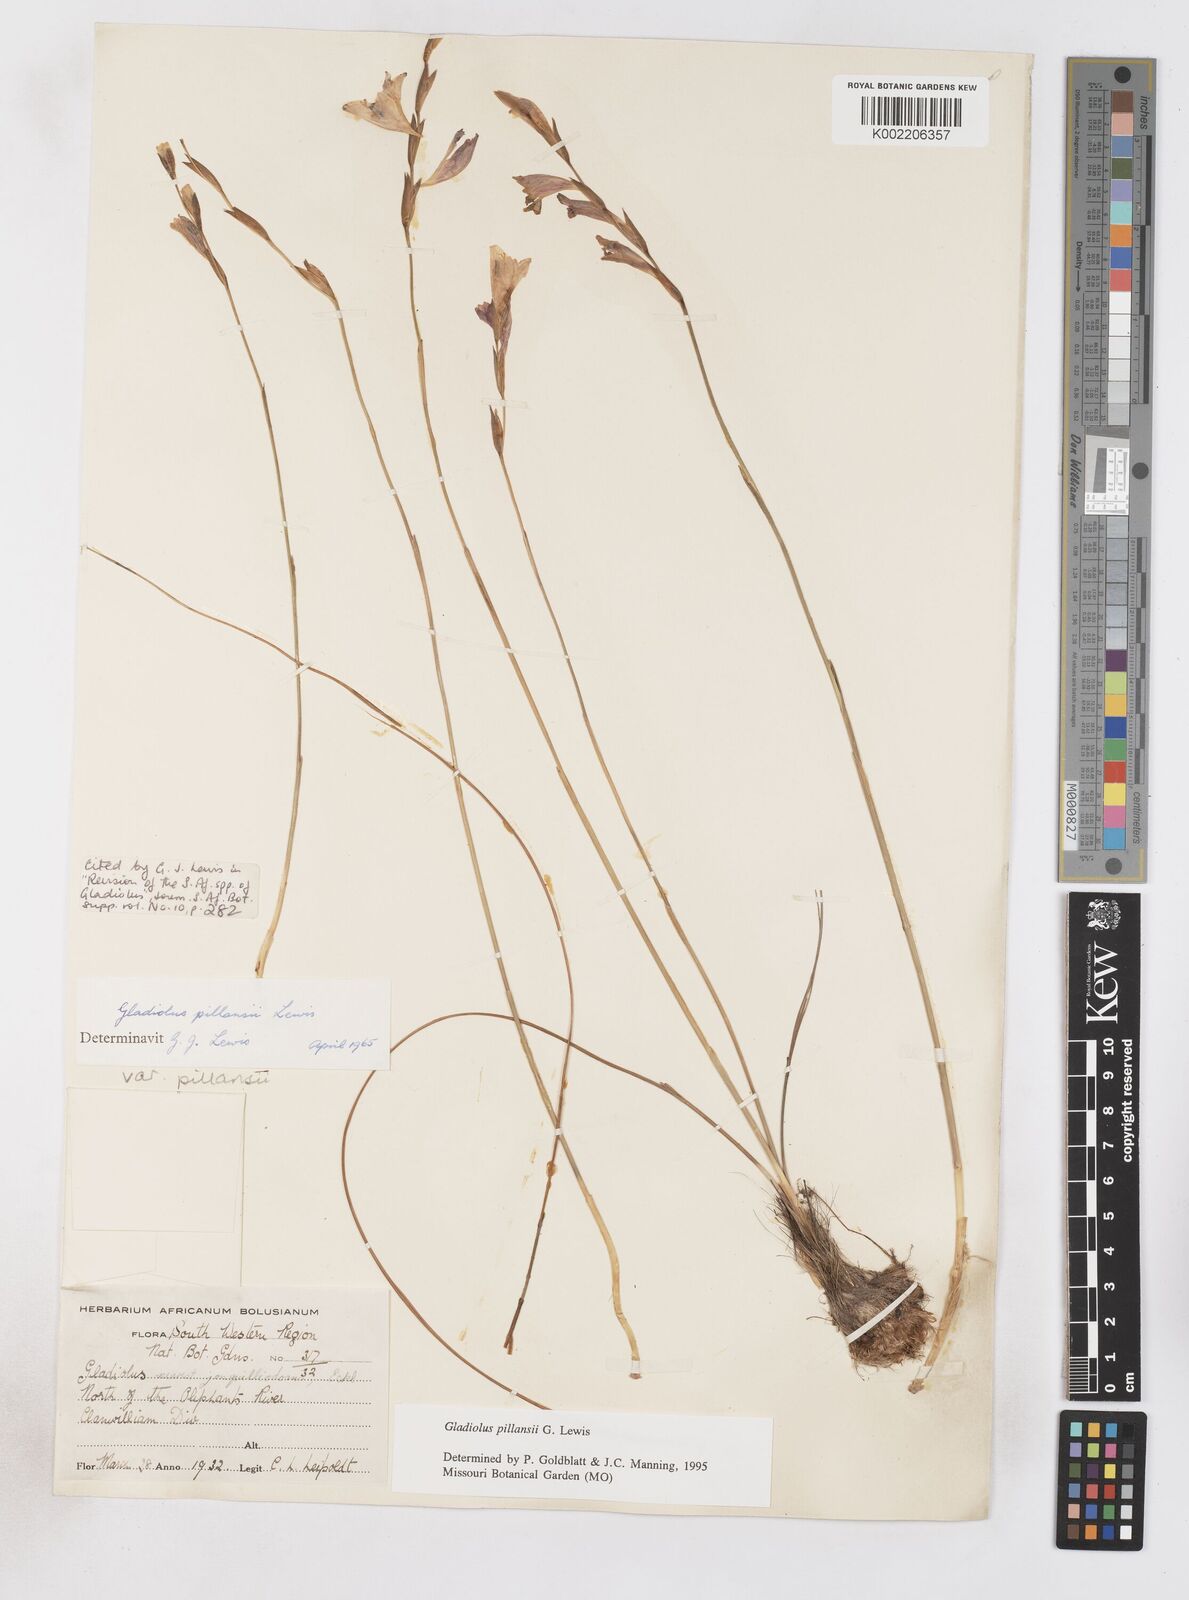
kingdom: Plantae
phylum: Tracheophyta
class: Liliopsida
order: Asparagales
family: Iridaceae
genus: Gladiolus
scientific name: Gladiolus martleyi
